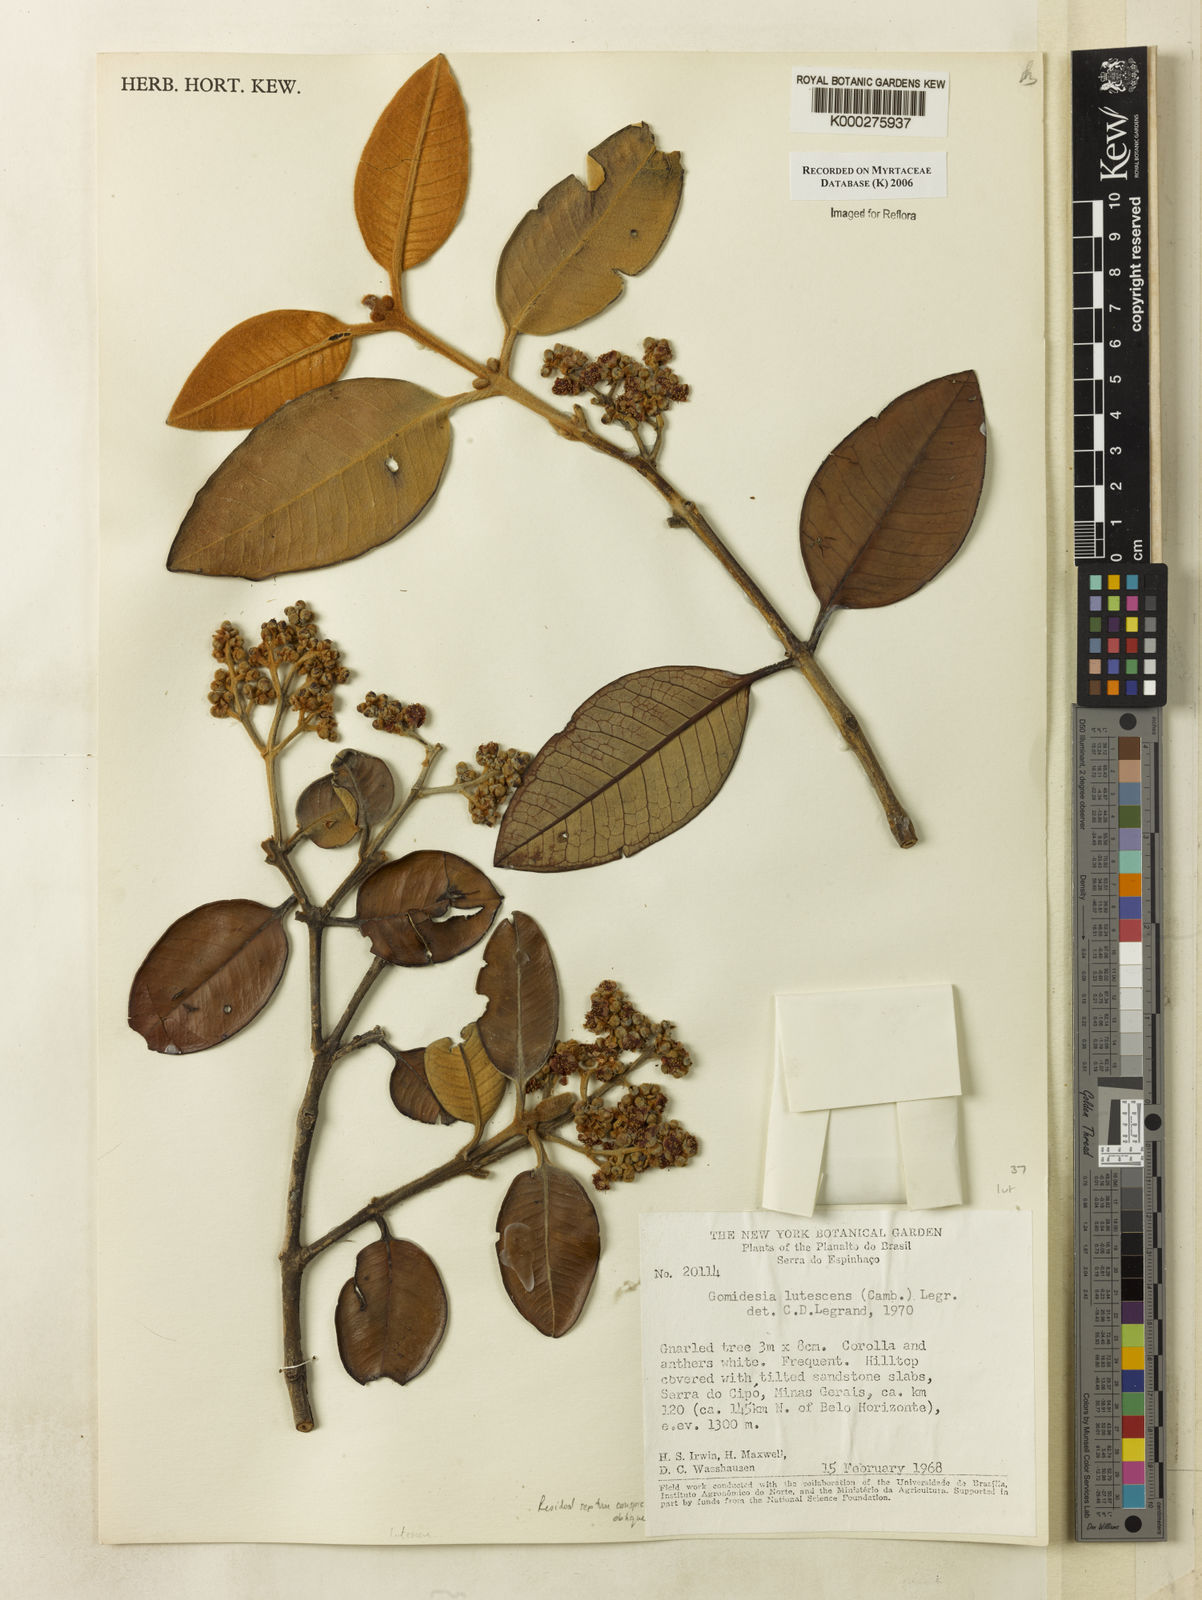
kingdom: Plantae
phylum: Tracheophyta
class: Magnoliopsida
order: Myrtales
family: Myrtaceae
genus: Myrcia
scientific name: Myrcia sylvatica
